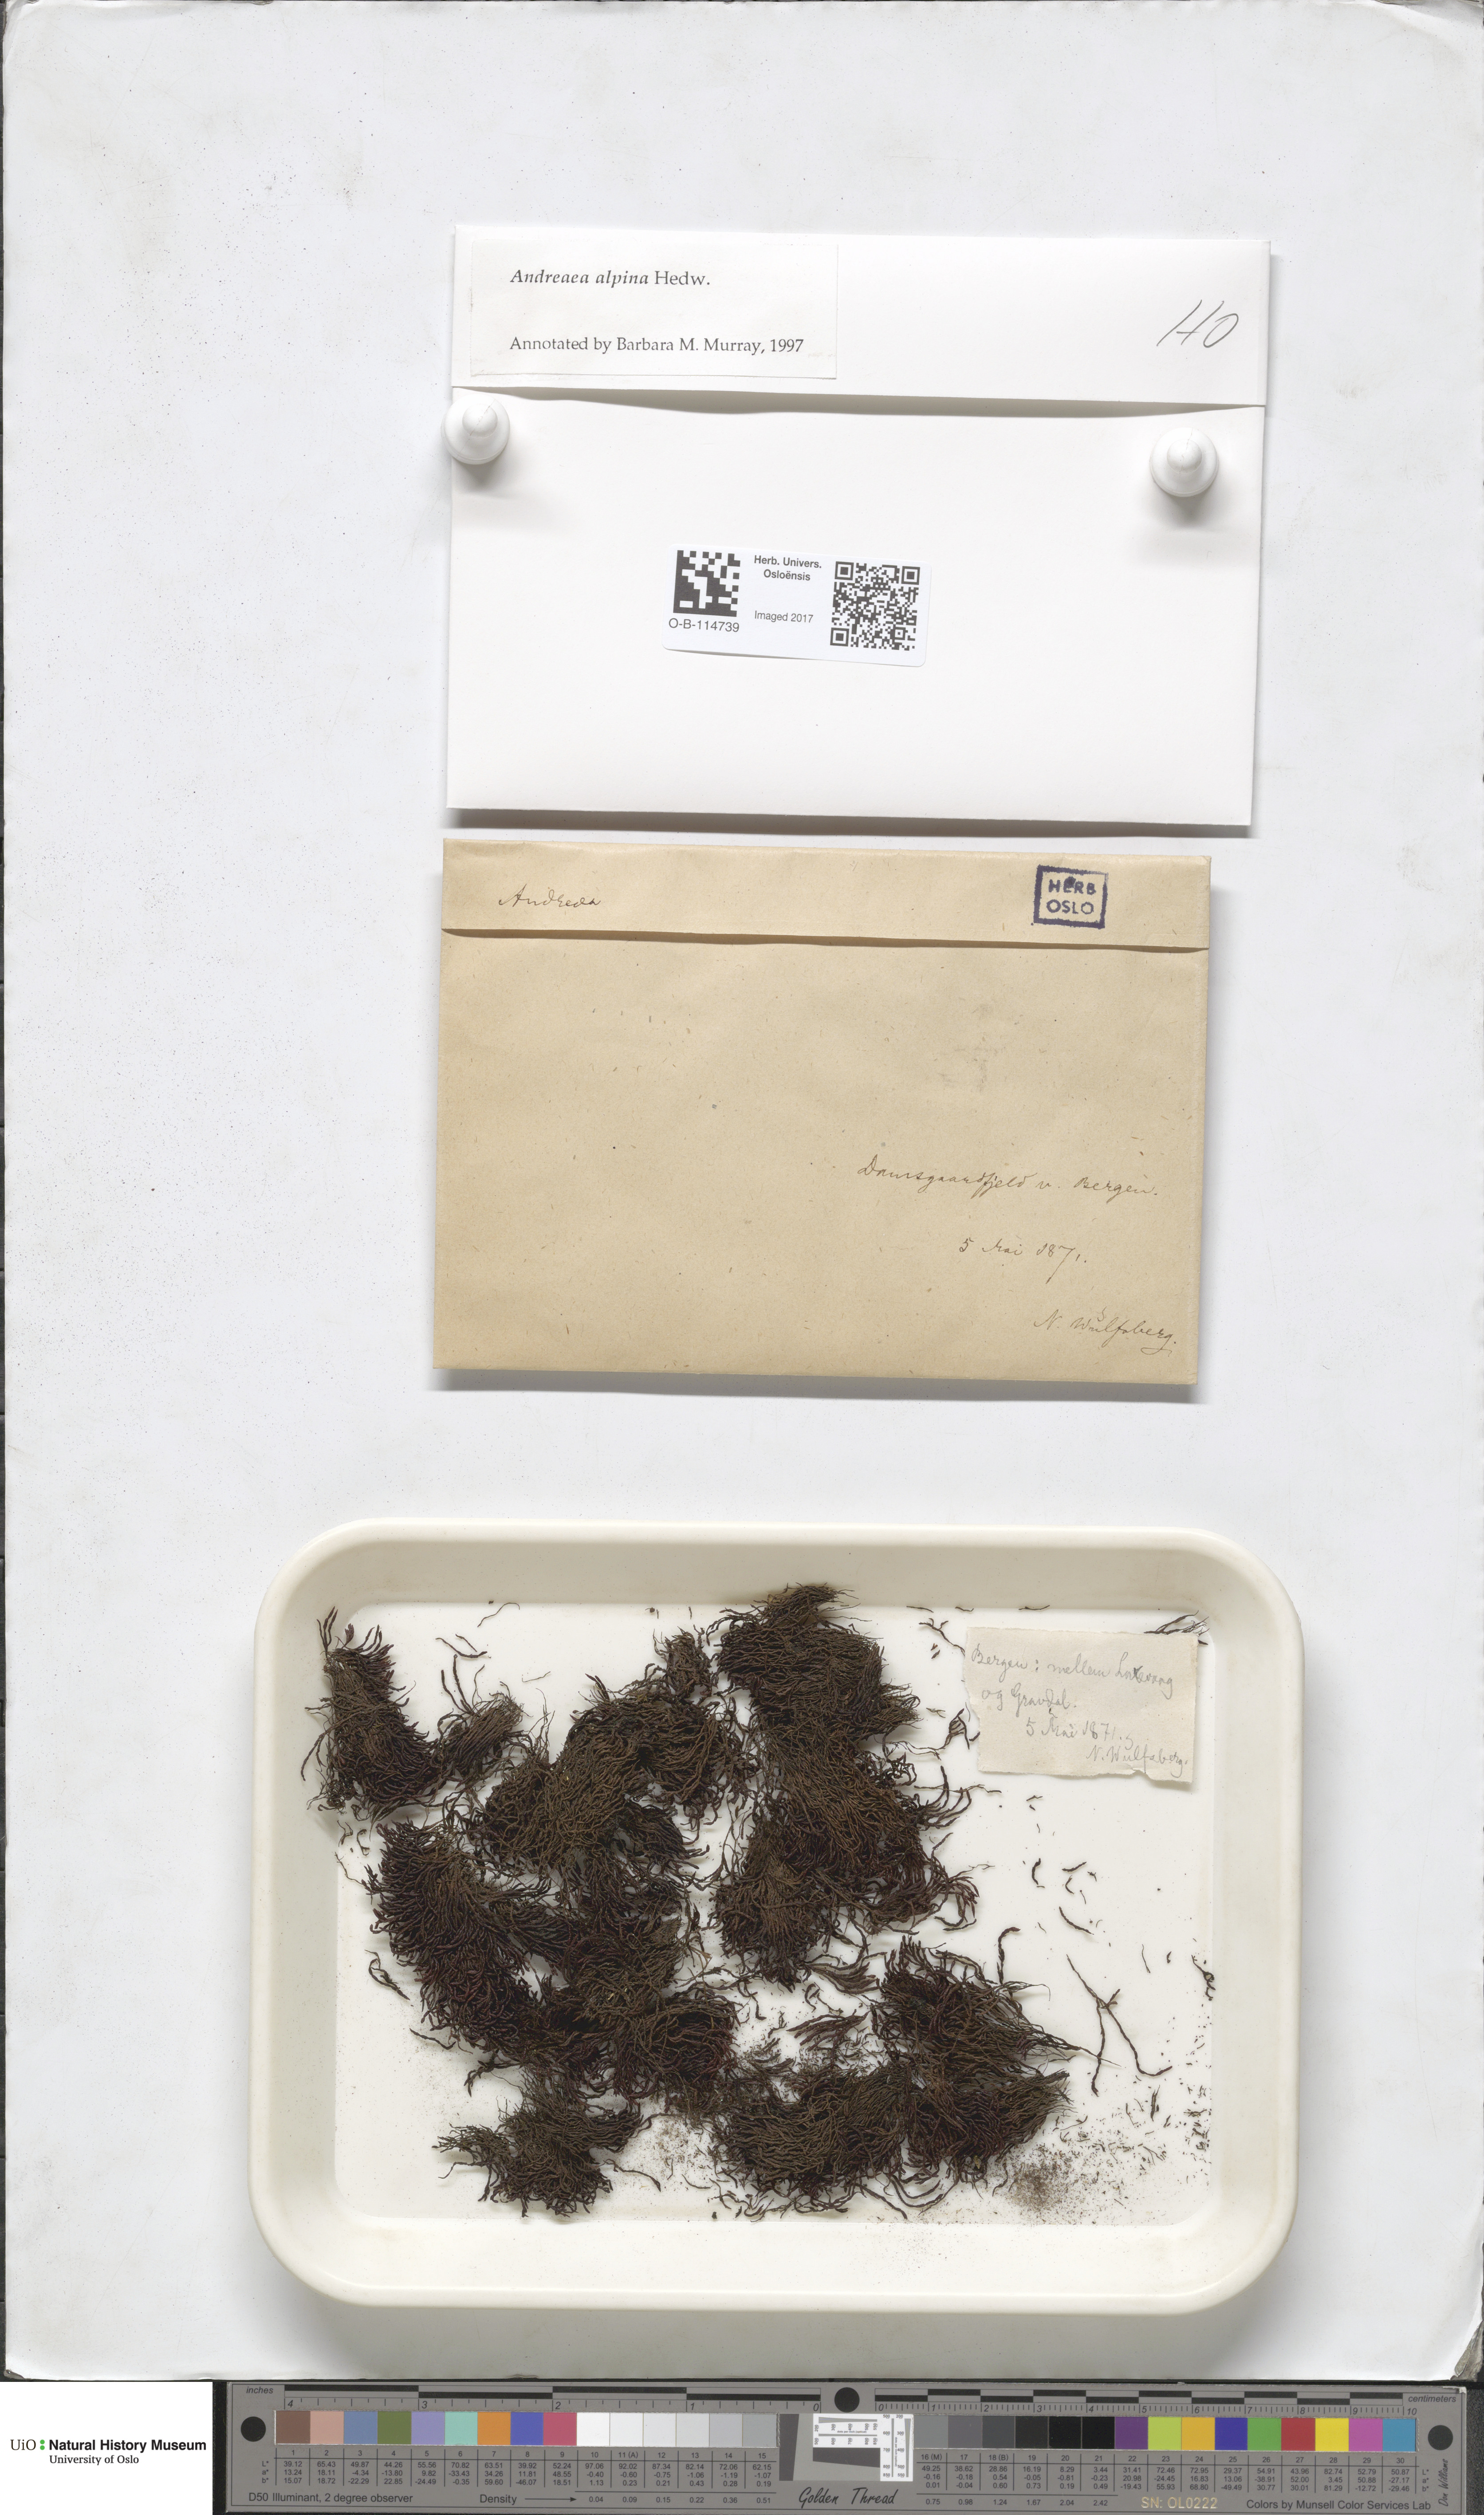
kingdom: Plantae
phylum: Bryophyta
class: Andreaeopsida
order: Andreaeales
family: Andreaeaceae
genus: Andreaea
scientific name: Andreaea hookeri
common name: Alpine rock-moss
